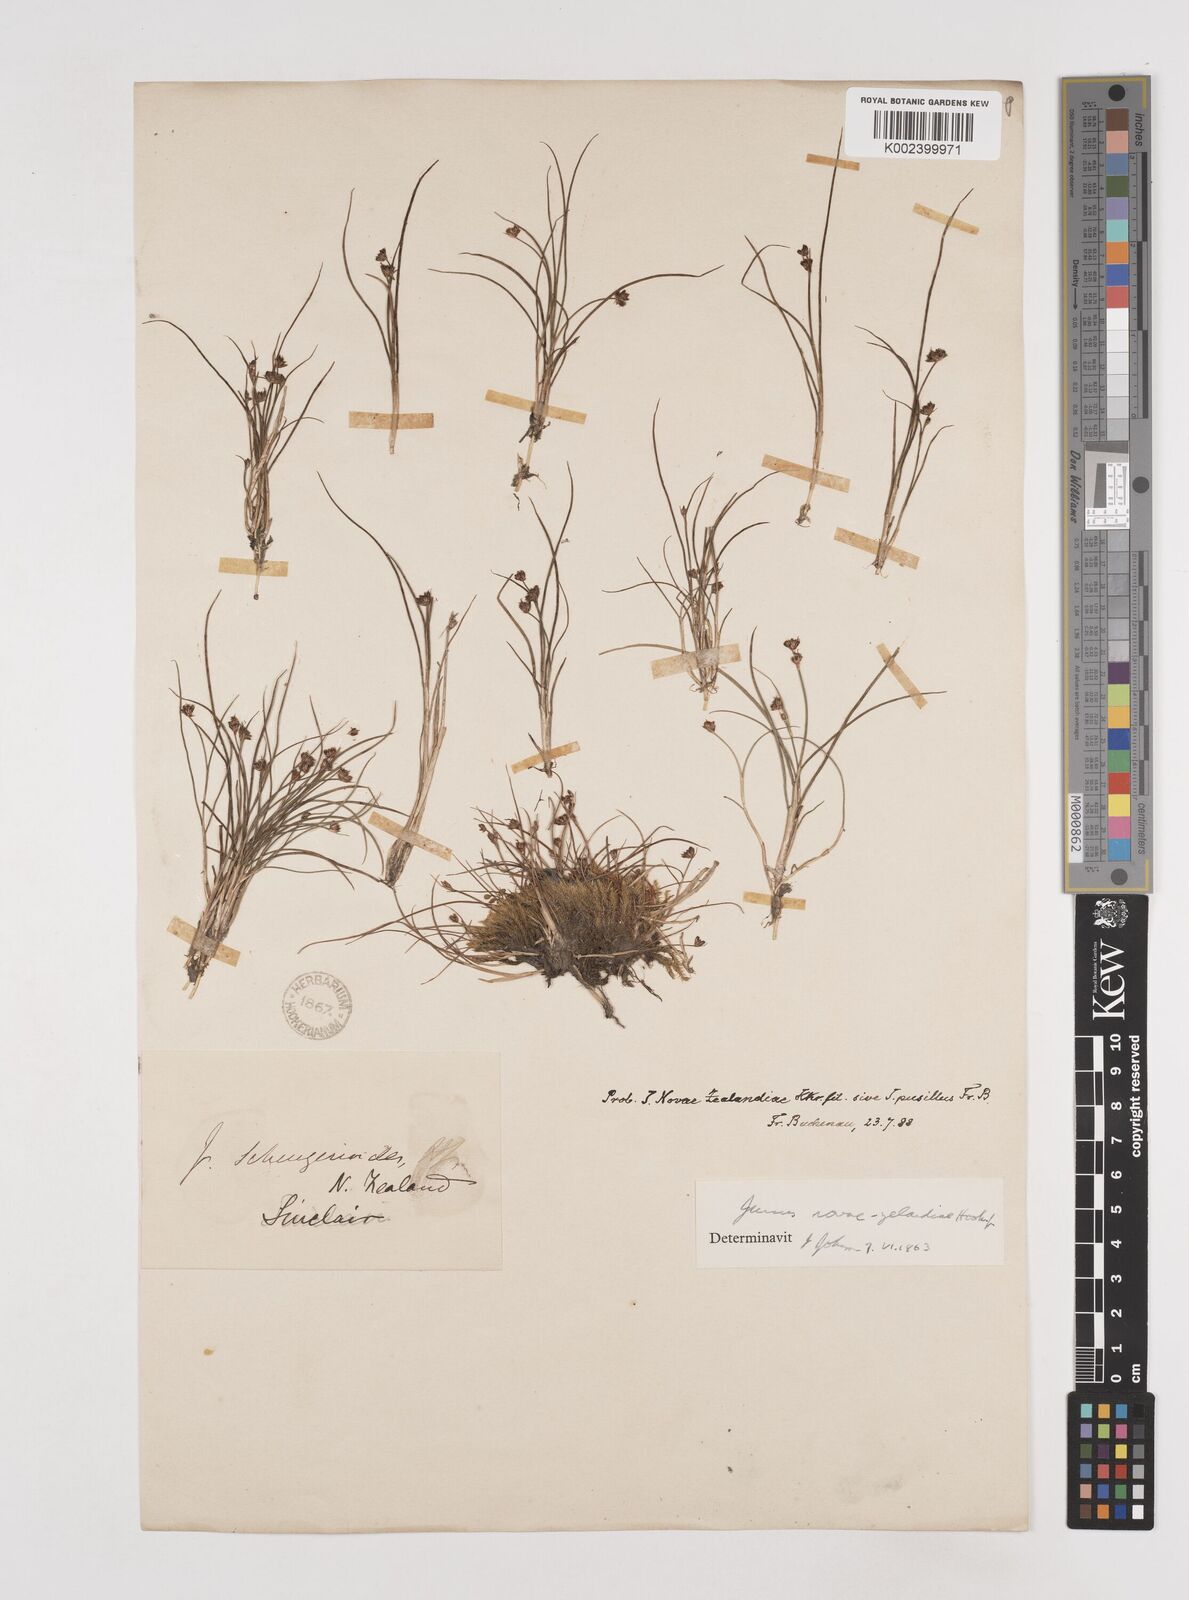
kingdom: Plantae
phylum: Tracheophyta
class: Liliopsida
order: Poales
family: Juncaceae
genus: Juncus
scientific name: Juncus novae-zelandiae
